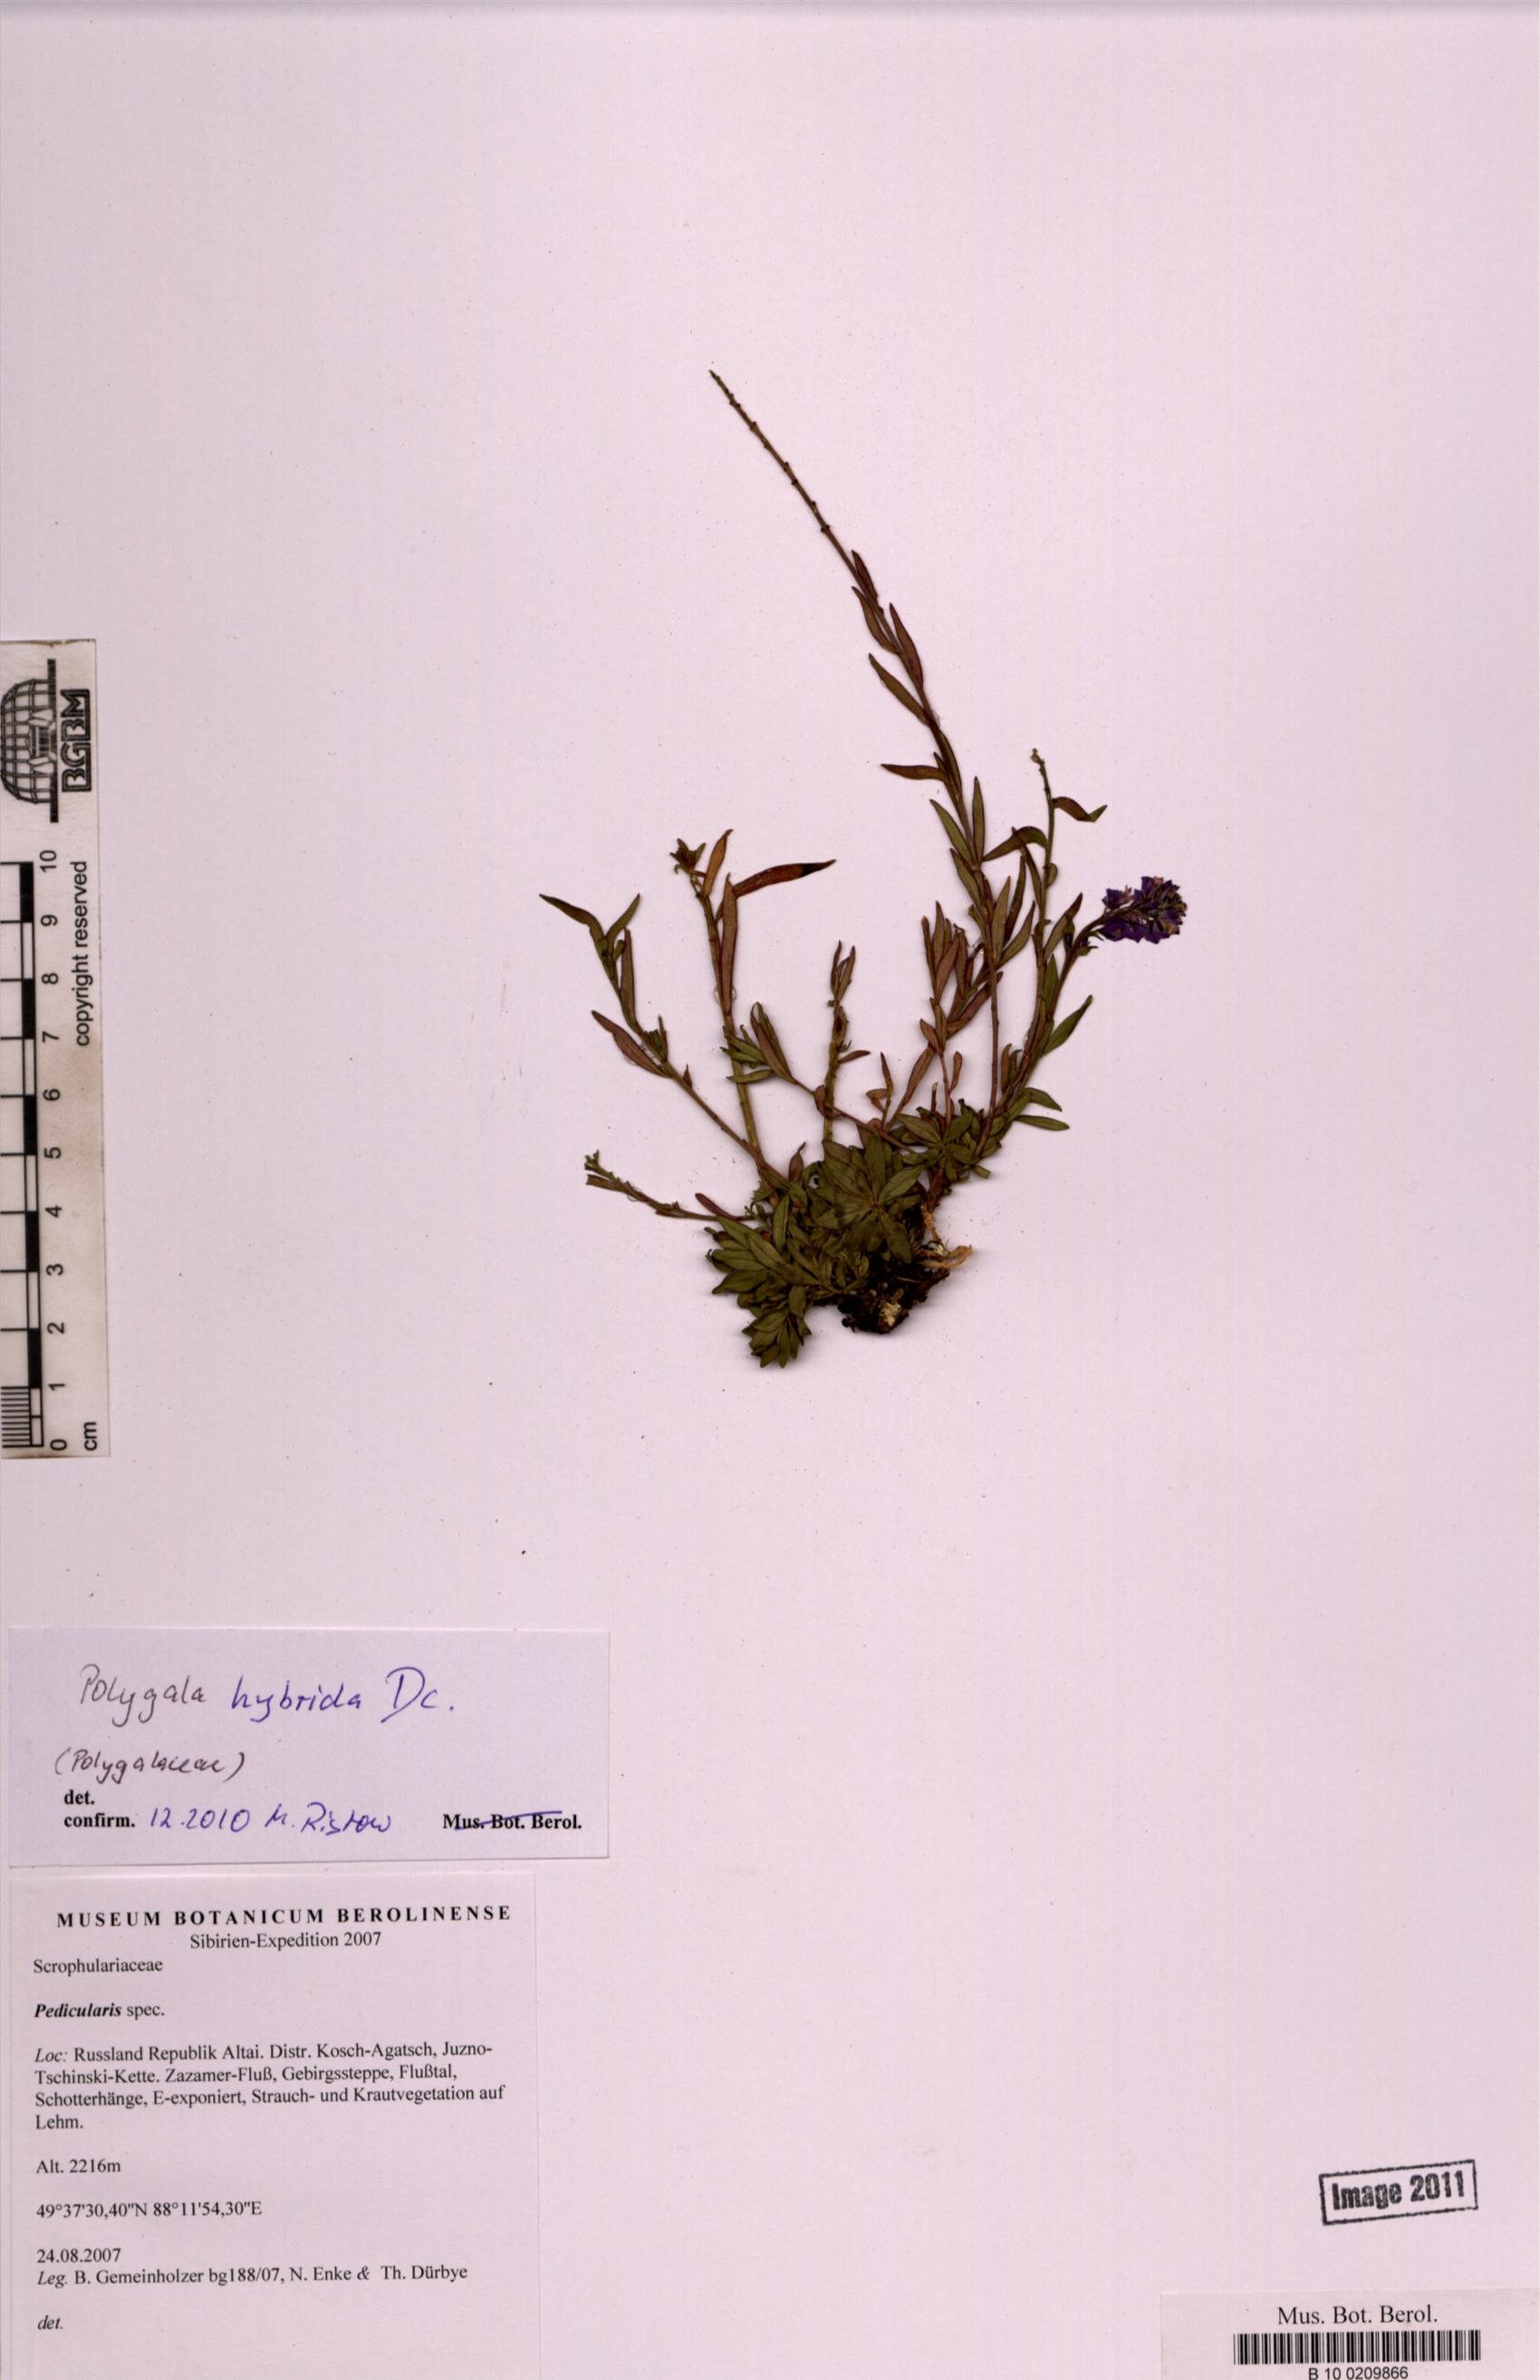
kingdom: Plantae
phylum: Tracheophyta
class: Magnoliopsida
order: Fabales
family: Polygalaceae
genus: Polygala
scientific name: Polygala comosa
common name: Tufted milkwort
